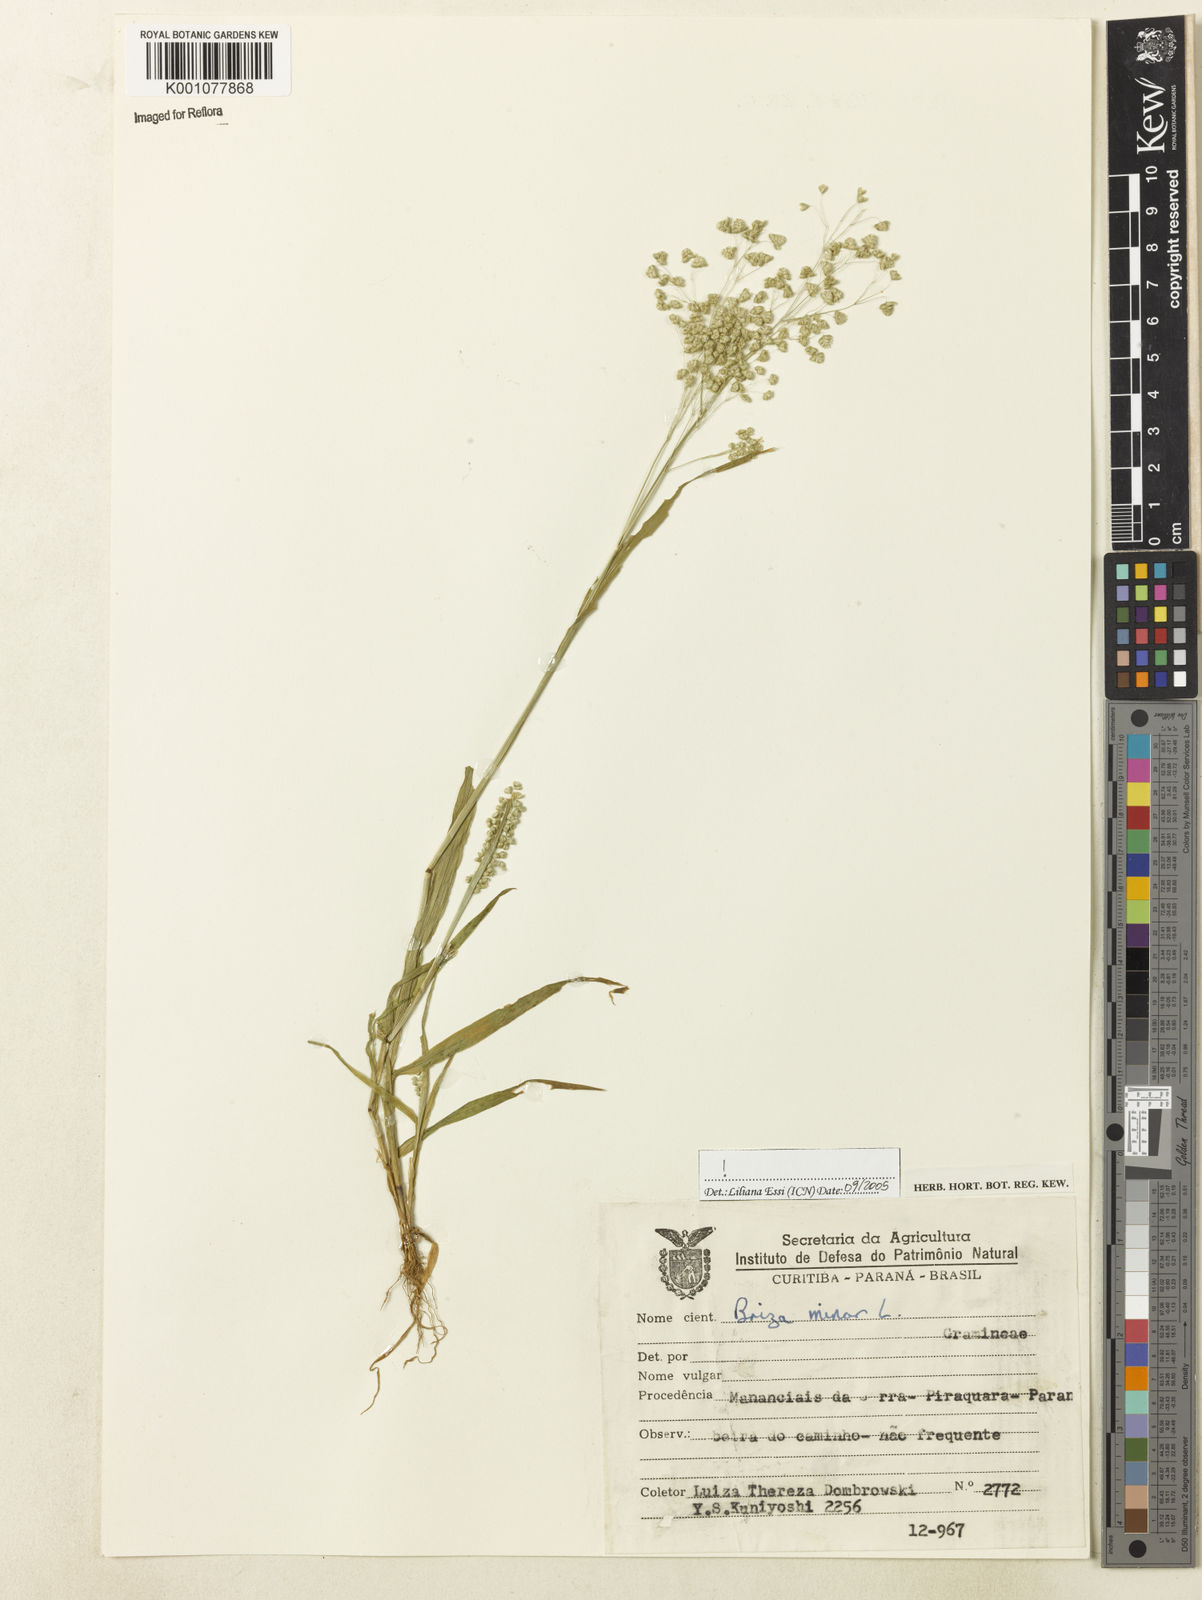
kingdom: Plantae
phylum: Tracheophyta
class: Liliopsida
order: Poales
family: Poaceae
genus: Briza
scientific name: Briza minor
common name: Lesser quaking-grass
